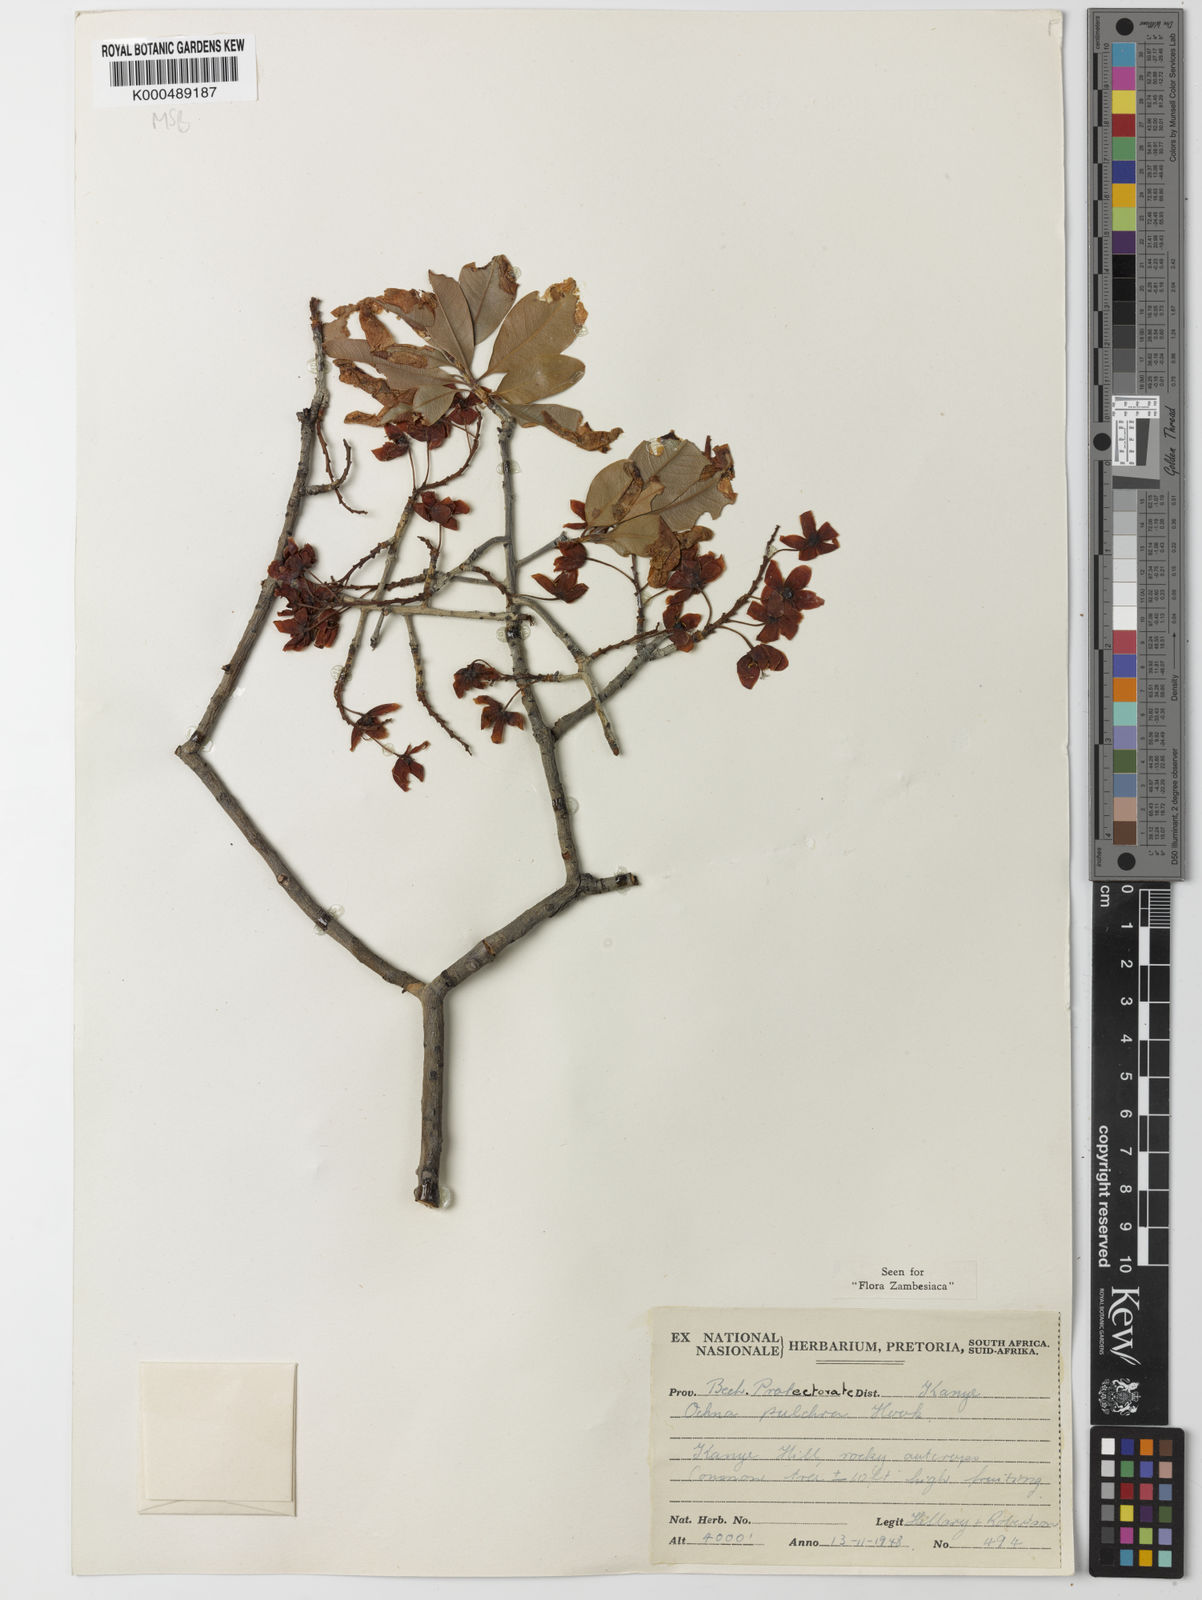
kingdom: Plantae
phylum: Tracheophyta
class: Magnoliopsida
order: Malpighiales
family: Ochnaceae
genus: Ochna
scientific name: Ochna pulchra
